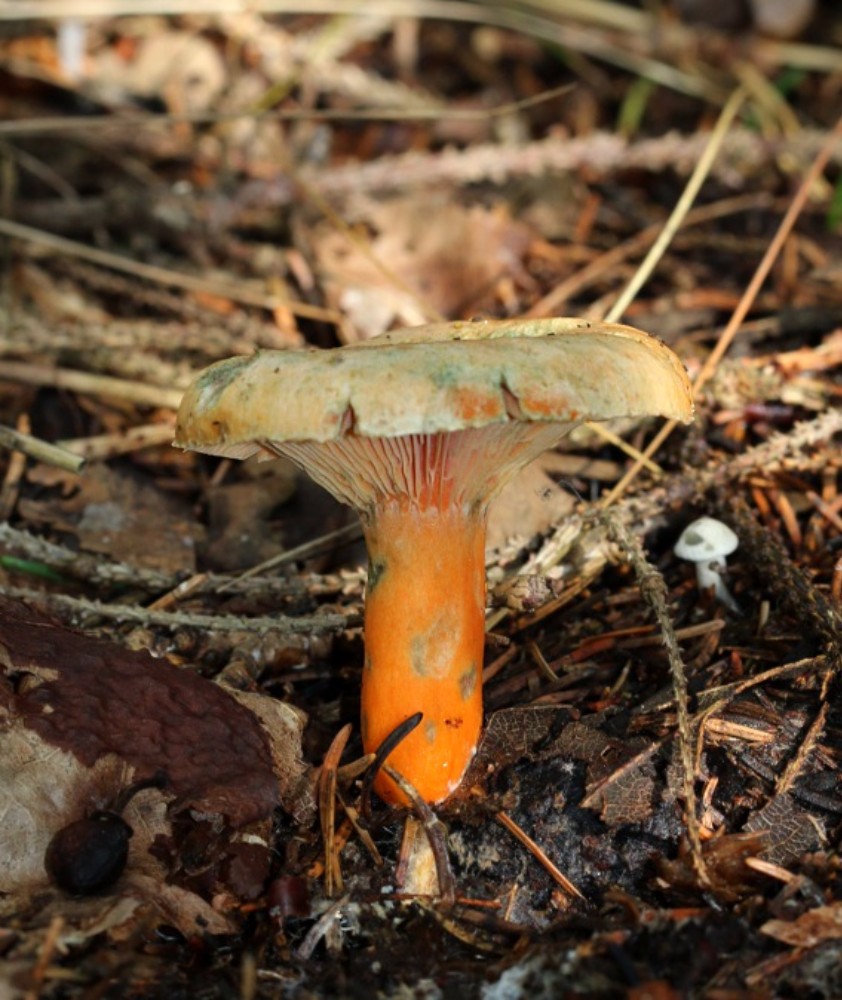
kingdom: Fungi
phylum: Basidiomycota
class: Agaricomycetes
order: Russulales
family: Russulaceae
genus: Lactarius
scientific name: Lactarius deterrimus
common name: gran-mælkehat
